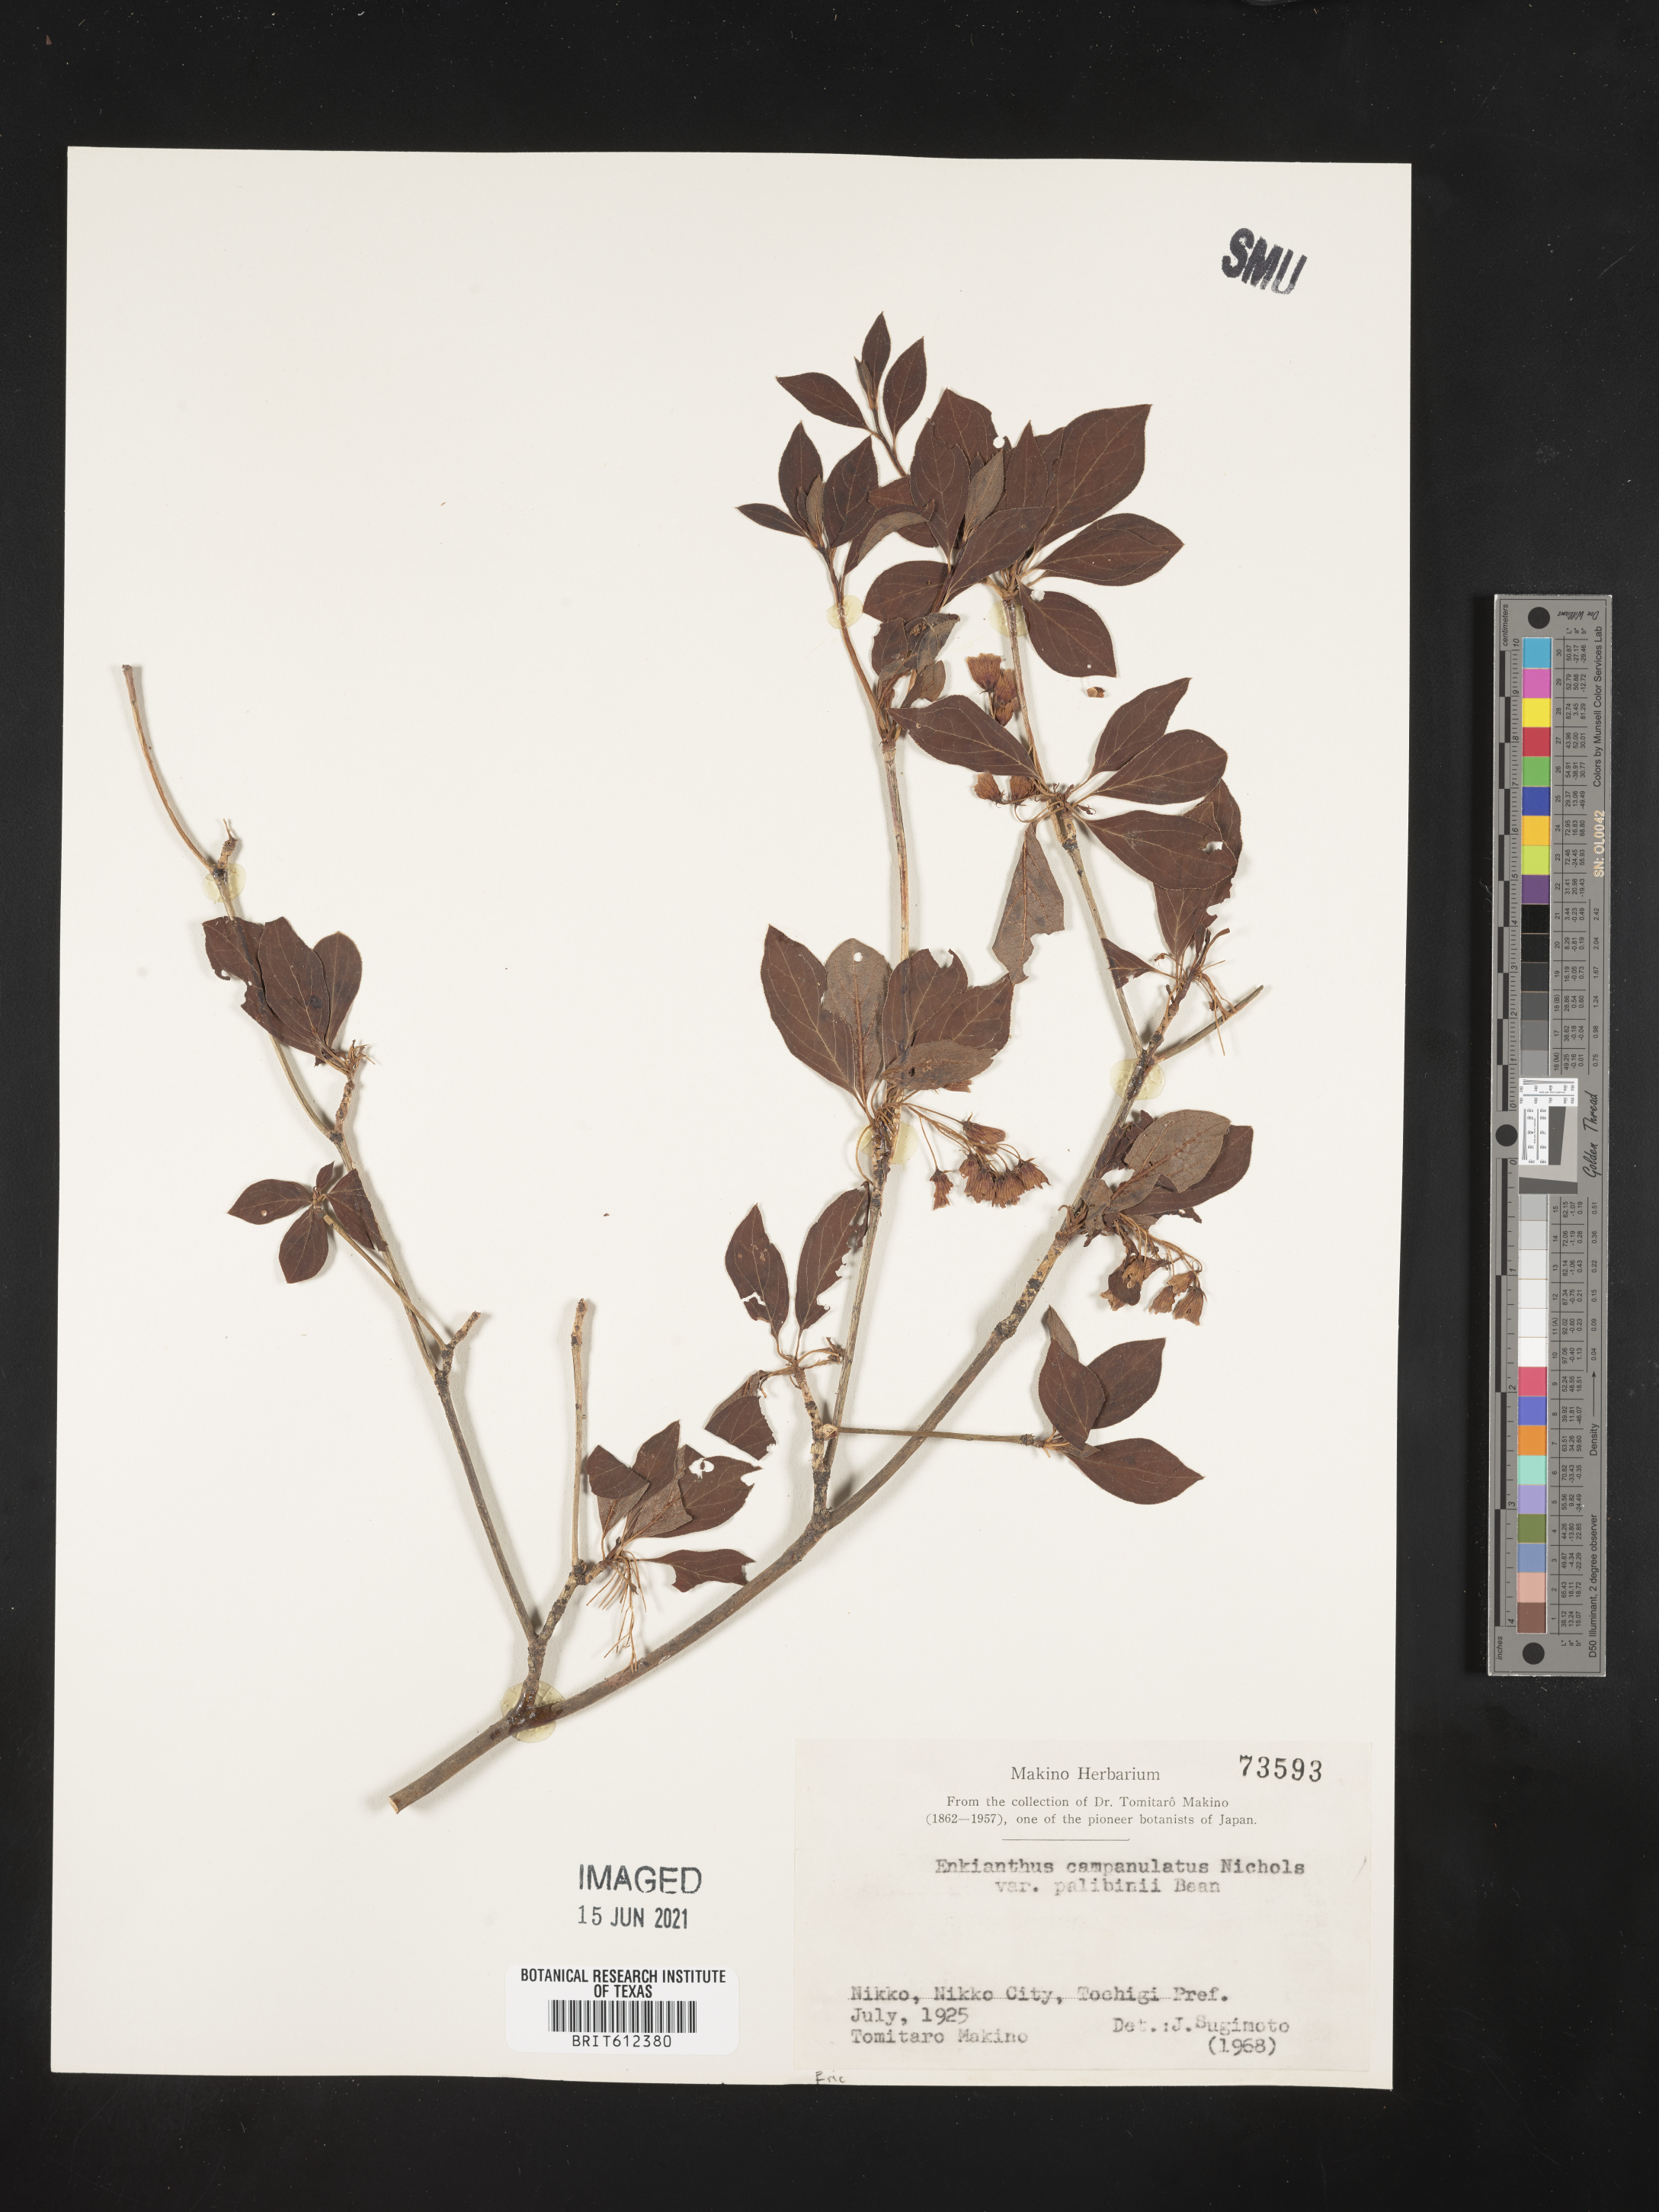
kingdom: Plantae
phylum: Tracheophyta
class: Magnoliopsida
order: Ericales
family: Ericaceae
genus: Enkianthus
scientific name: Enkianthus campanulatus
